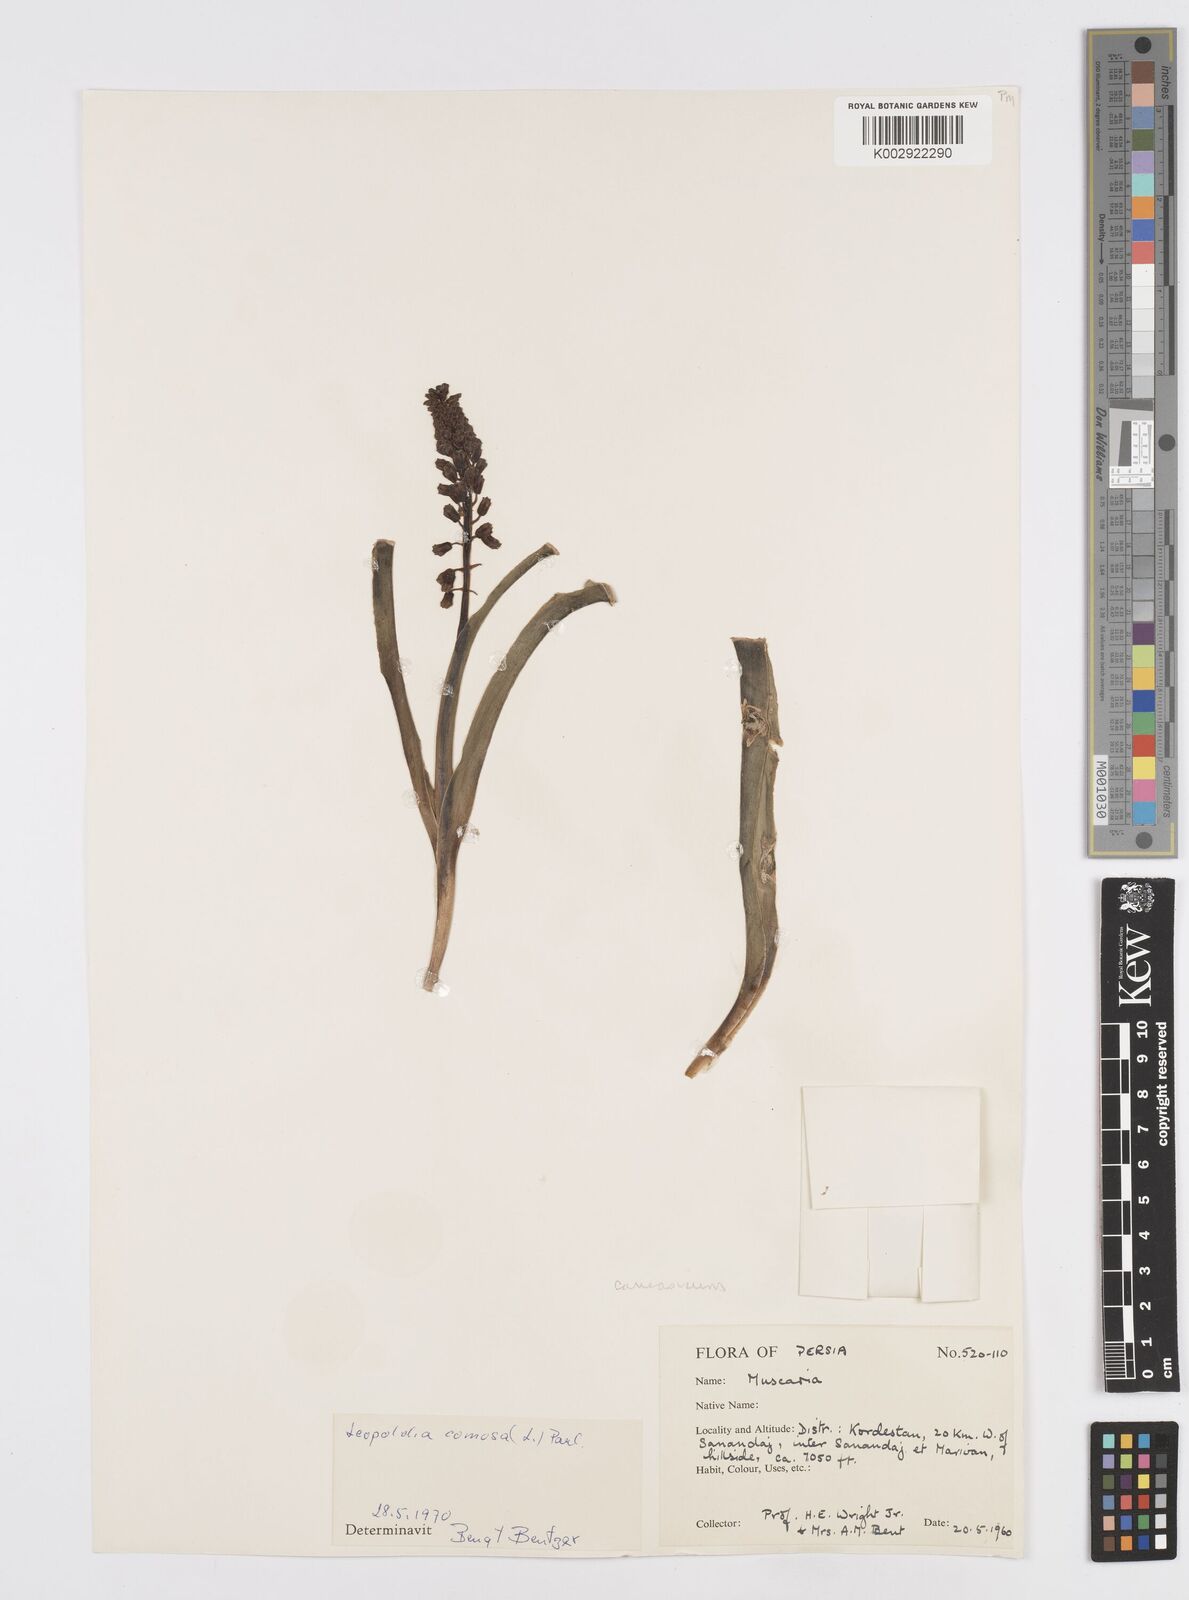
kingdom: Plantae
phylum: Tracheophyta
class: Liliopsida
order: Asparagales
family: Asparagaceae
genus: Muscari
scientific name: Muscari comosum
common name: Tassel hyacinth
